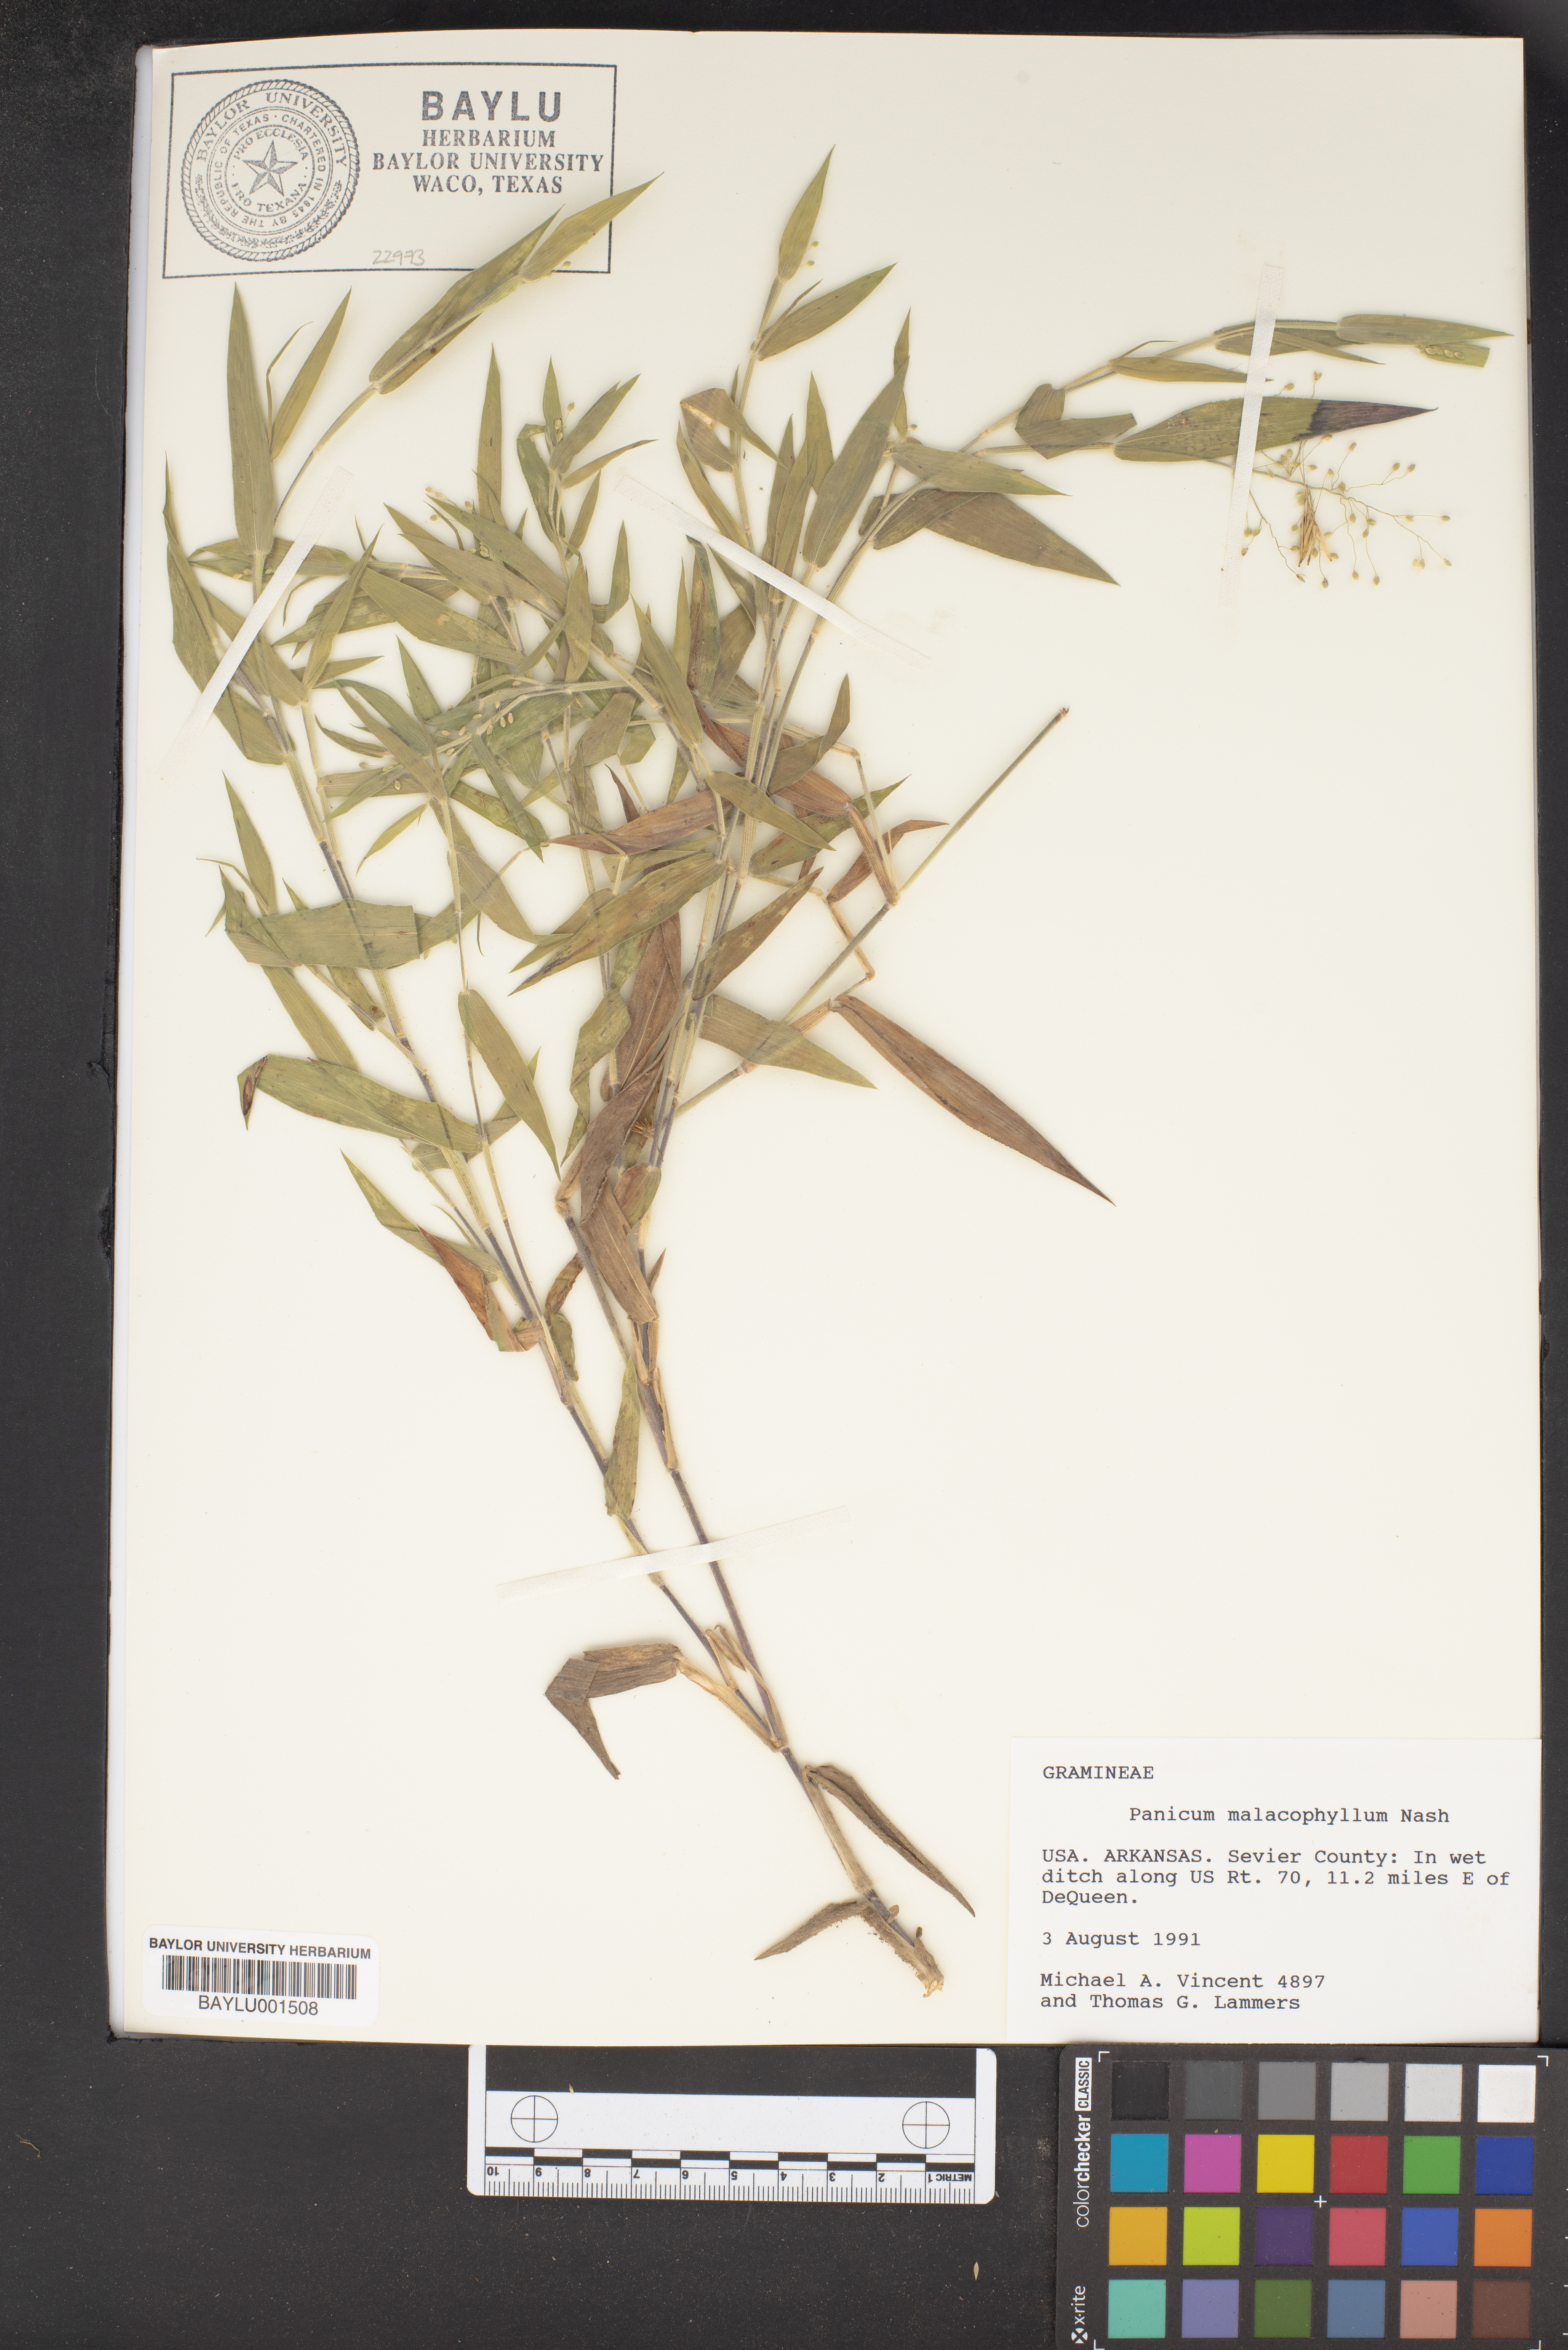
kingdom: Plantae
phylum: Tracheophyta
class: Liliopsida
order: Poales
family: Poaceae
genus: Dichanthelium
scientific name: Dichanthelium malacophyllum
